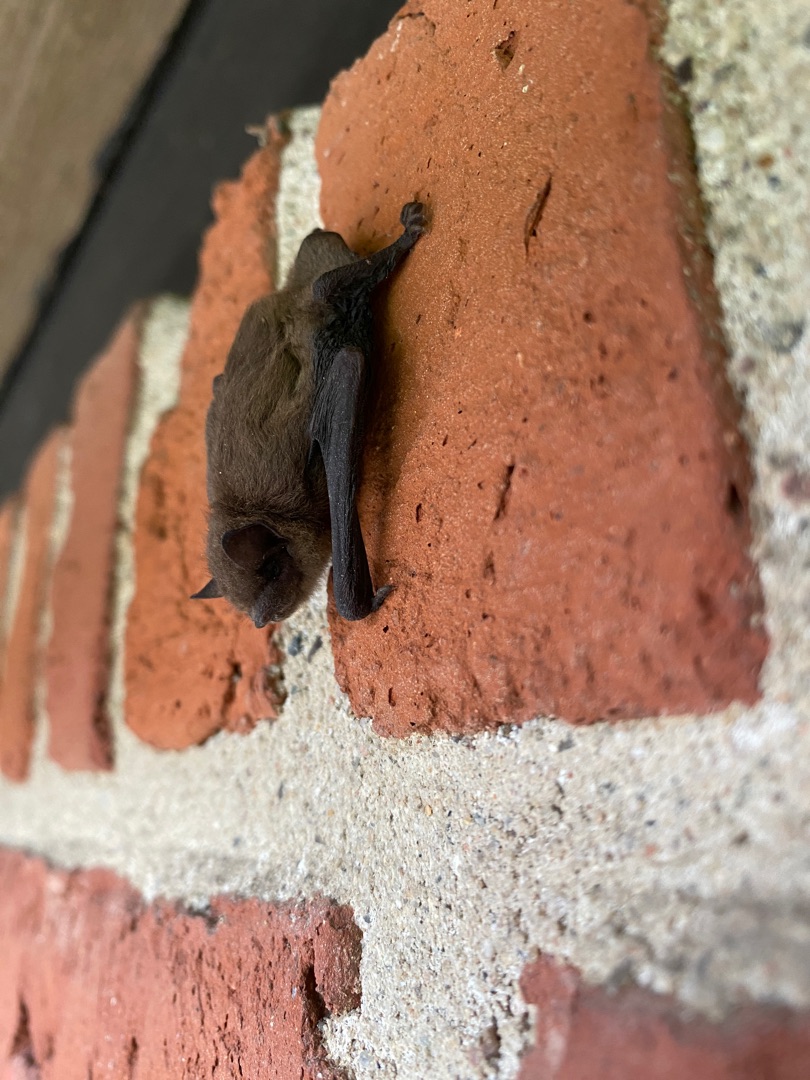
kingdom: Animalia
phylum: Chordata
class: Mammalia
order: Chiroptera
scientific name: Chiroptera
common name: Flagermus
